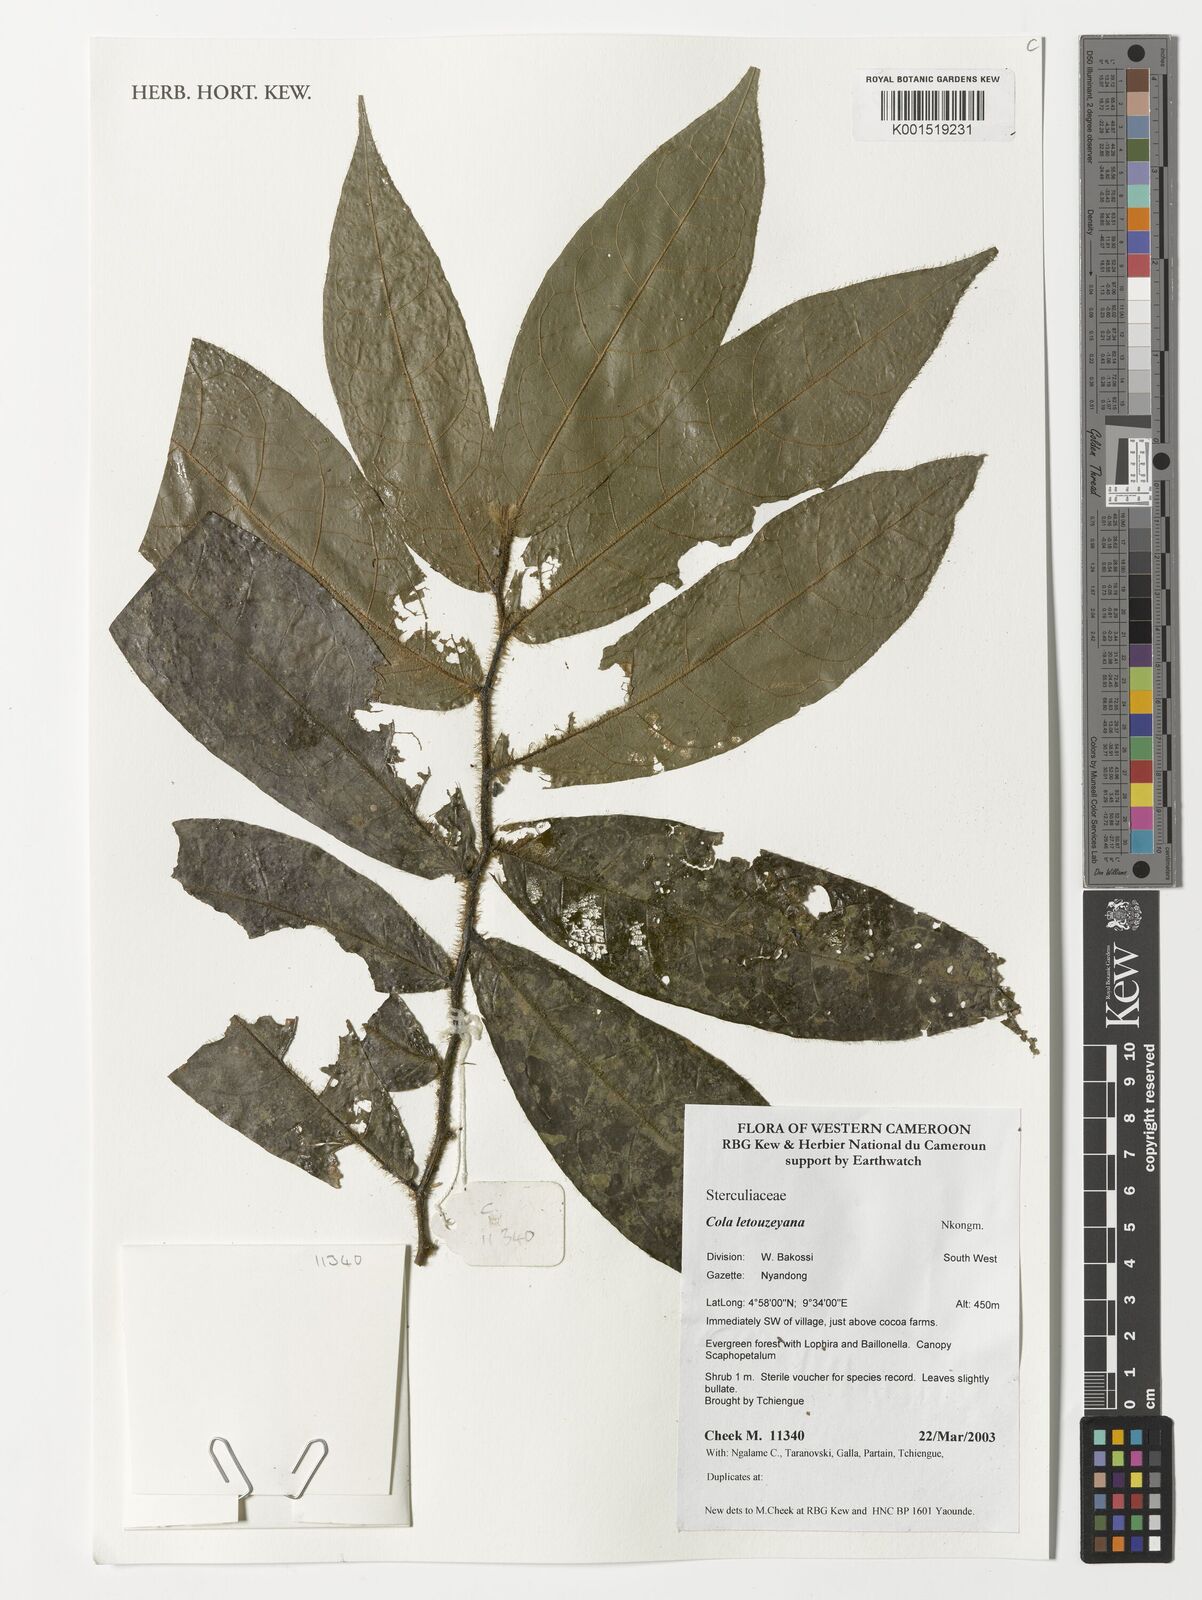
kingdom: Plantae
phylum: Tracheophyta
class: Magnoliopsida
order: Malvales
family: Malvaceae
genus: Cola
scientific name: Cola letouzeyana
